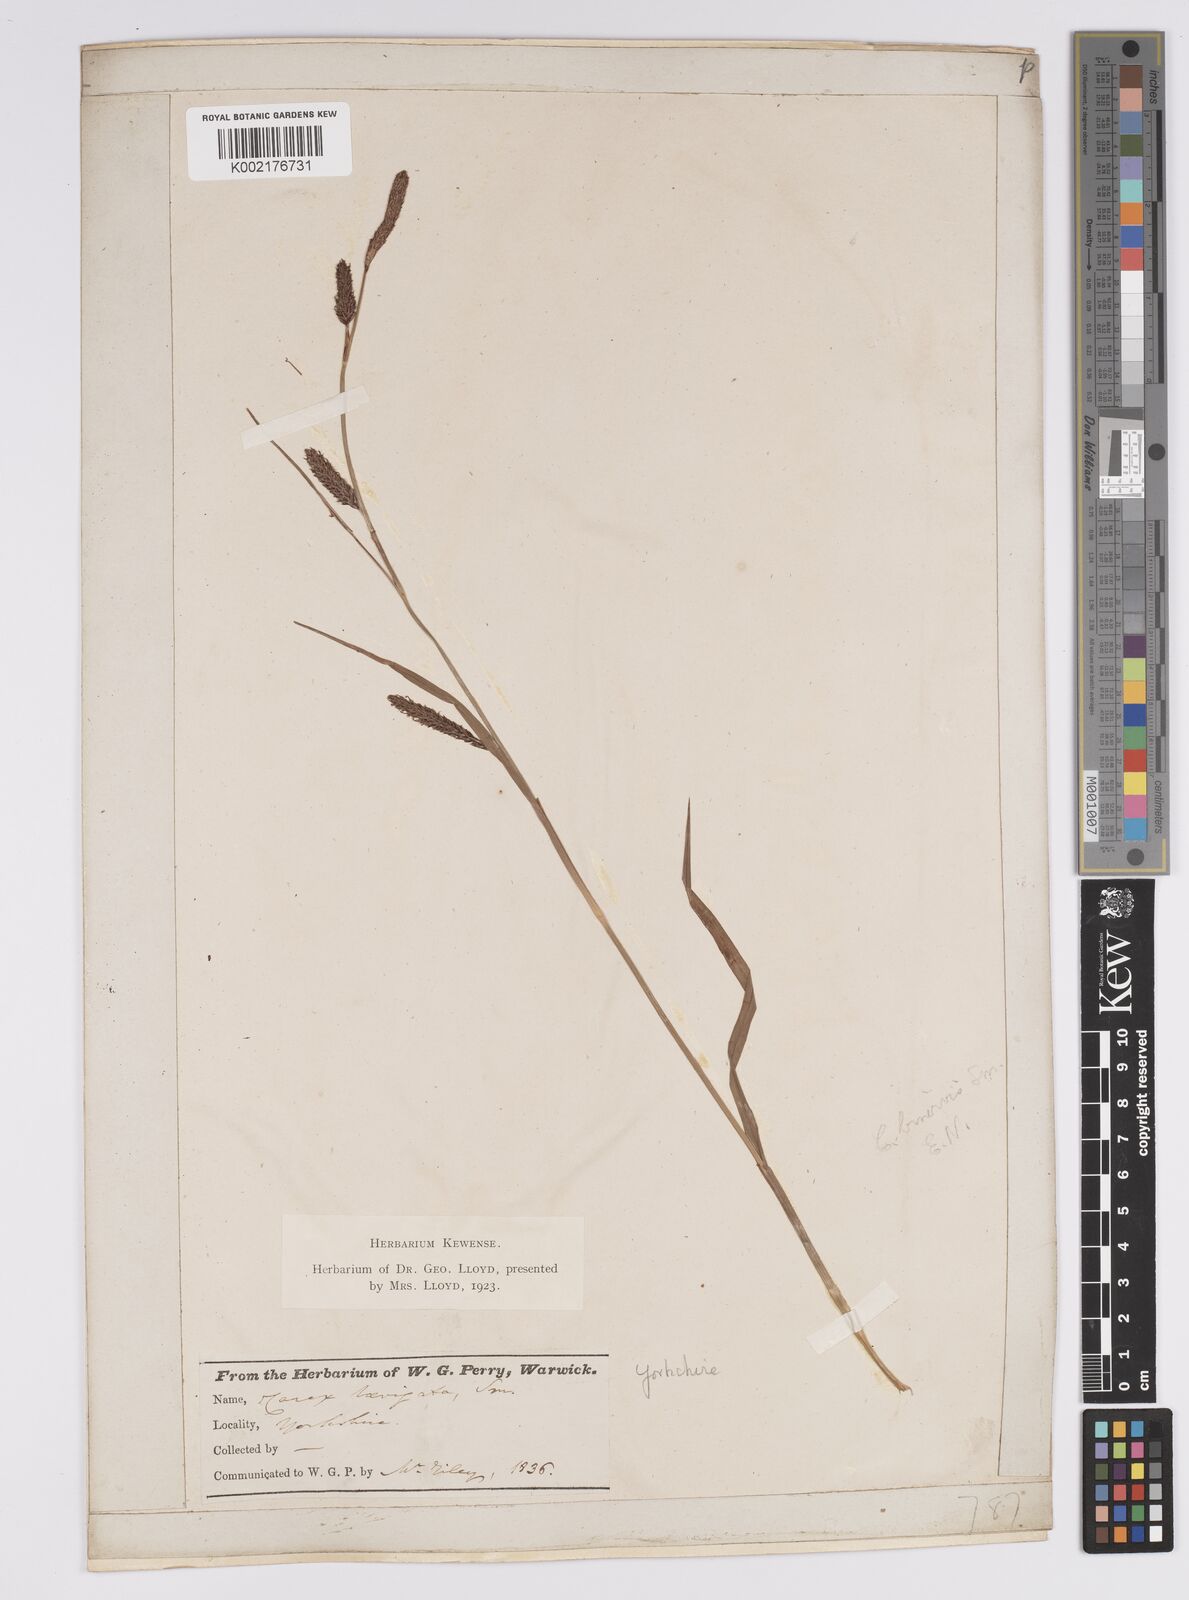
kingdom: Plantae
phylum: Tracheophyta
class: Liliopsida
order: Poales
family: Cyperaceae
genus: Carex
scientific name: Carex binervis
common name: Green-ribbed sedge
